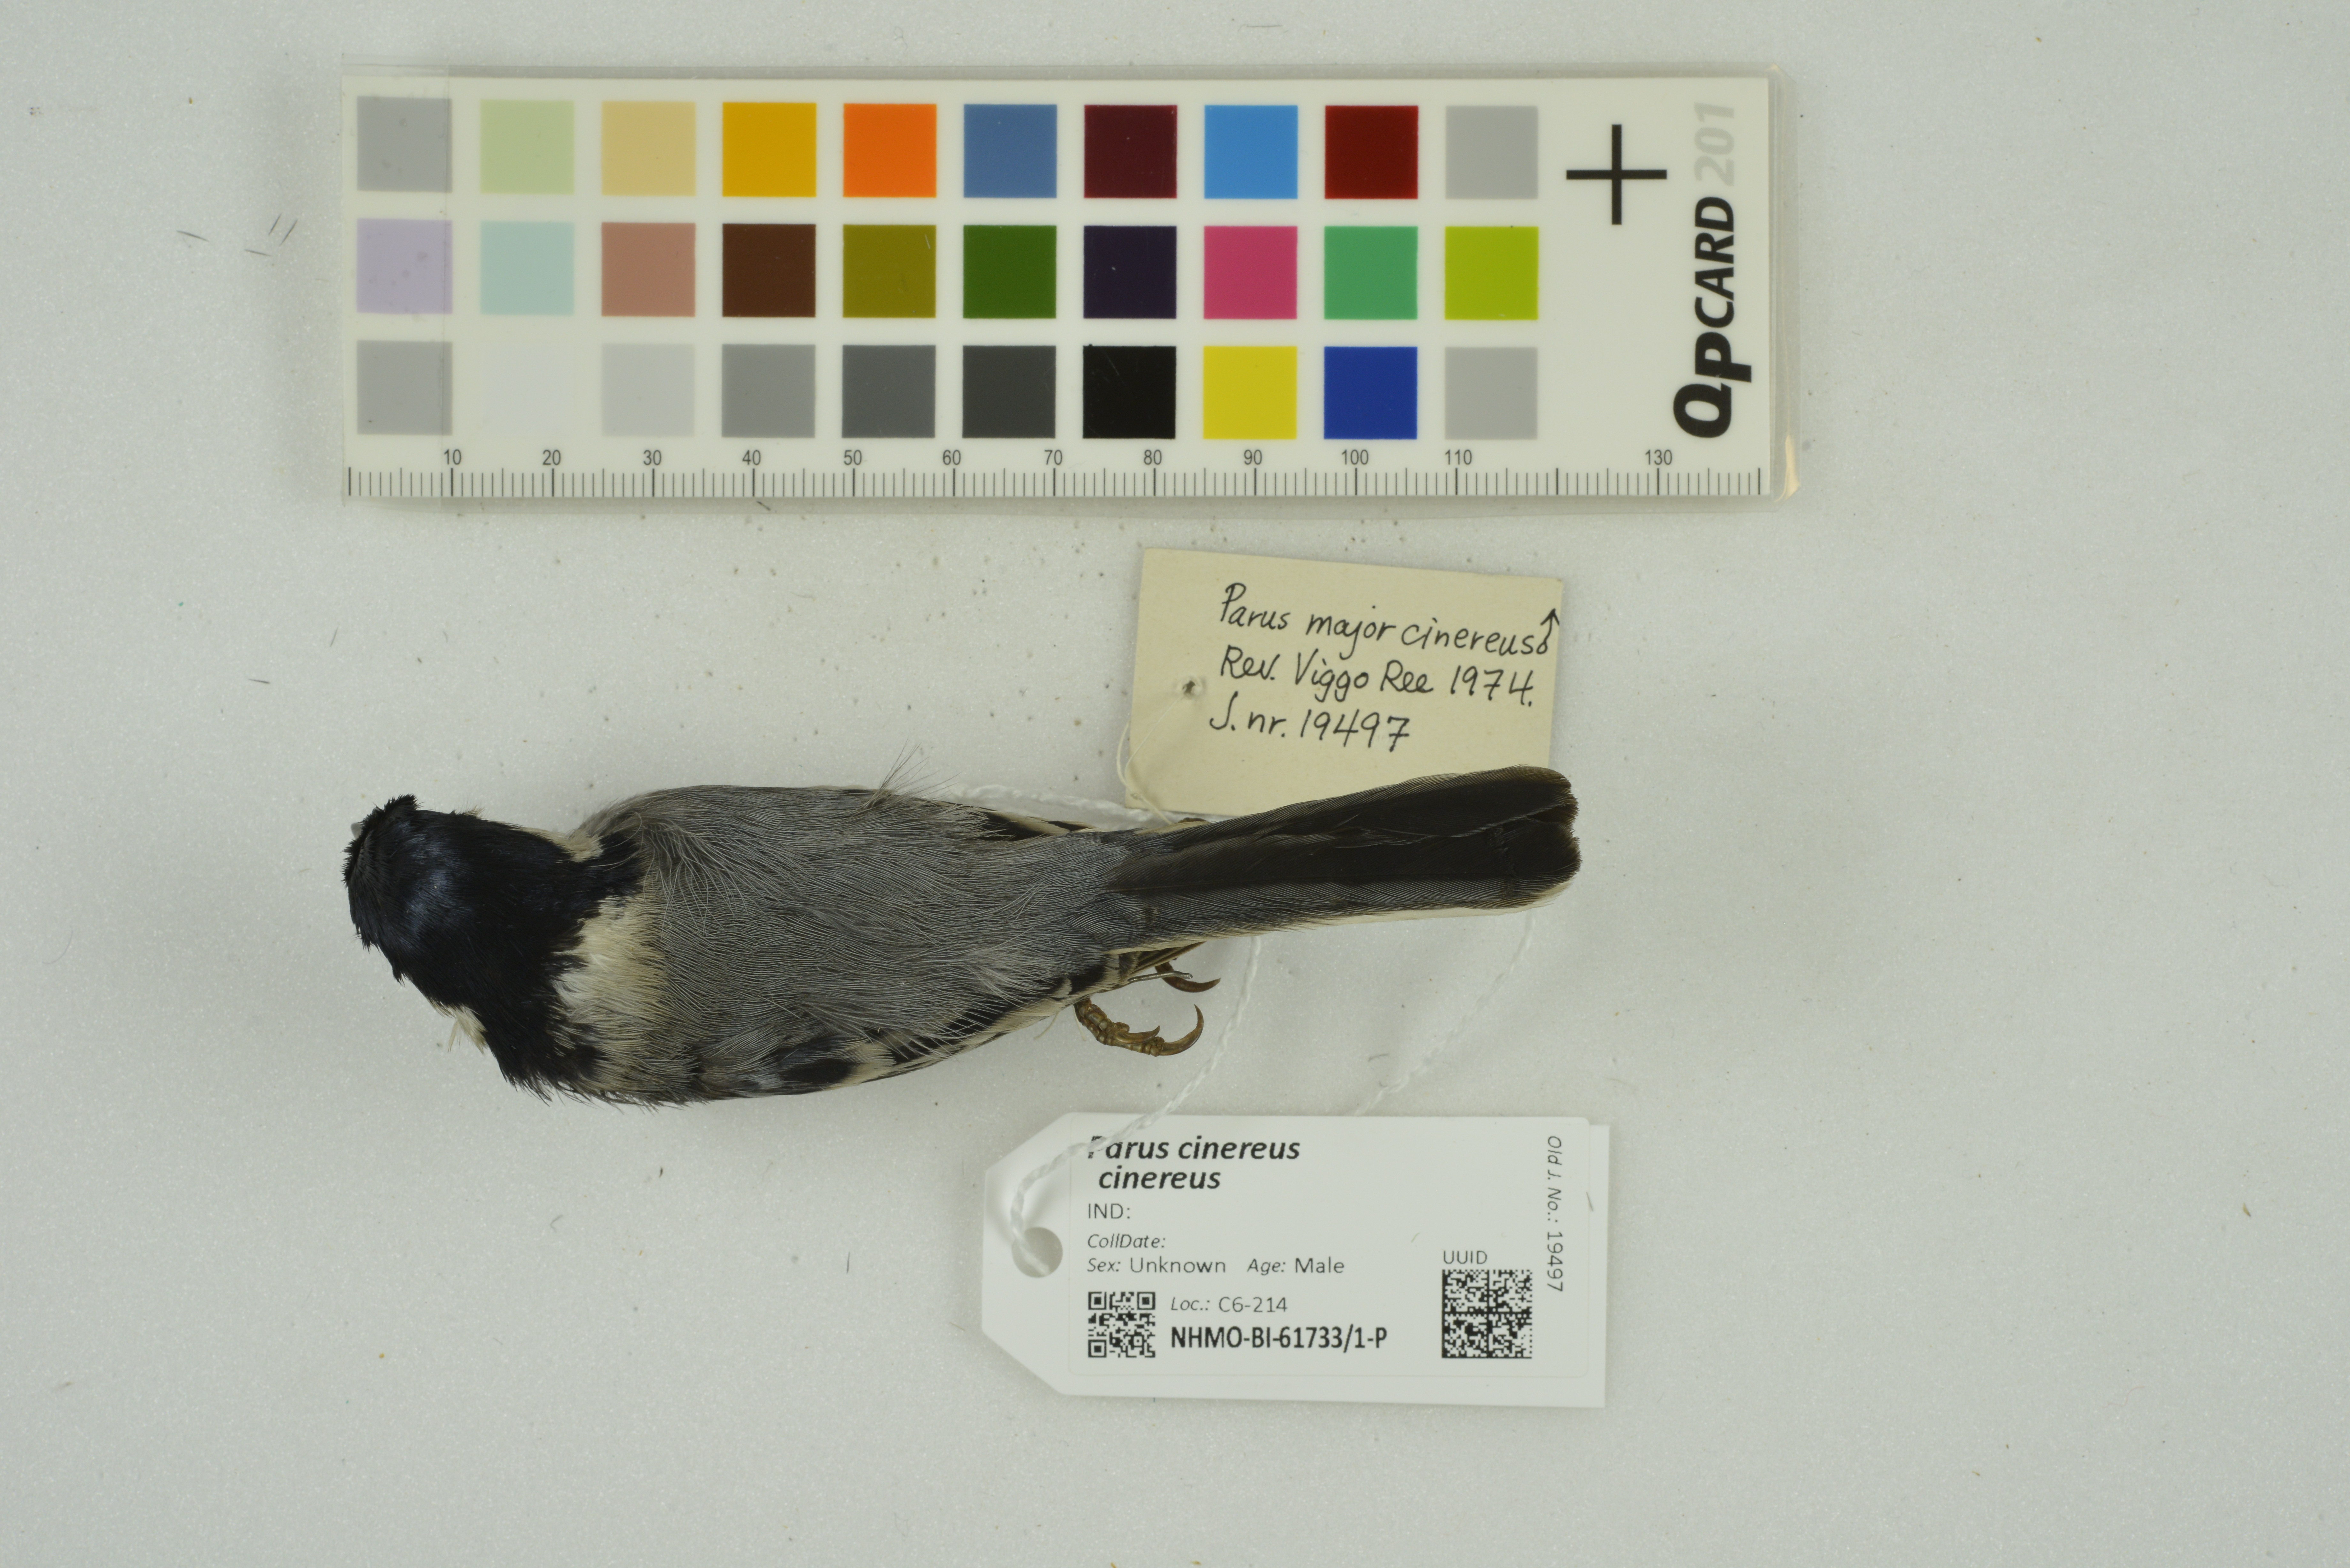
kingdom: Animalia
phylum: Chordata
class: Aves
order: Passeriformes
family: Paridae
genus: Parus
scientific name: Parus cinereus
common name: Cinereous tit
